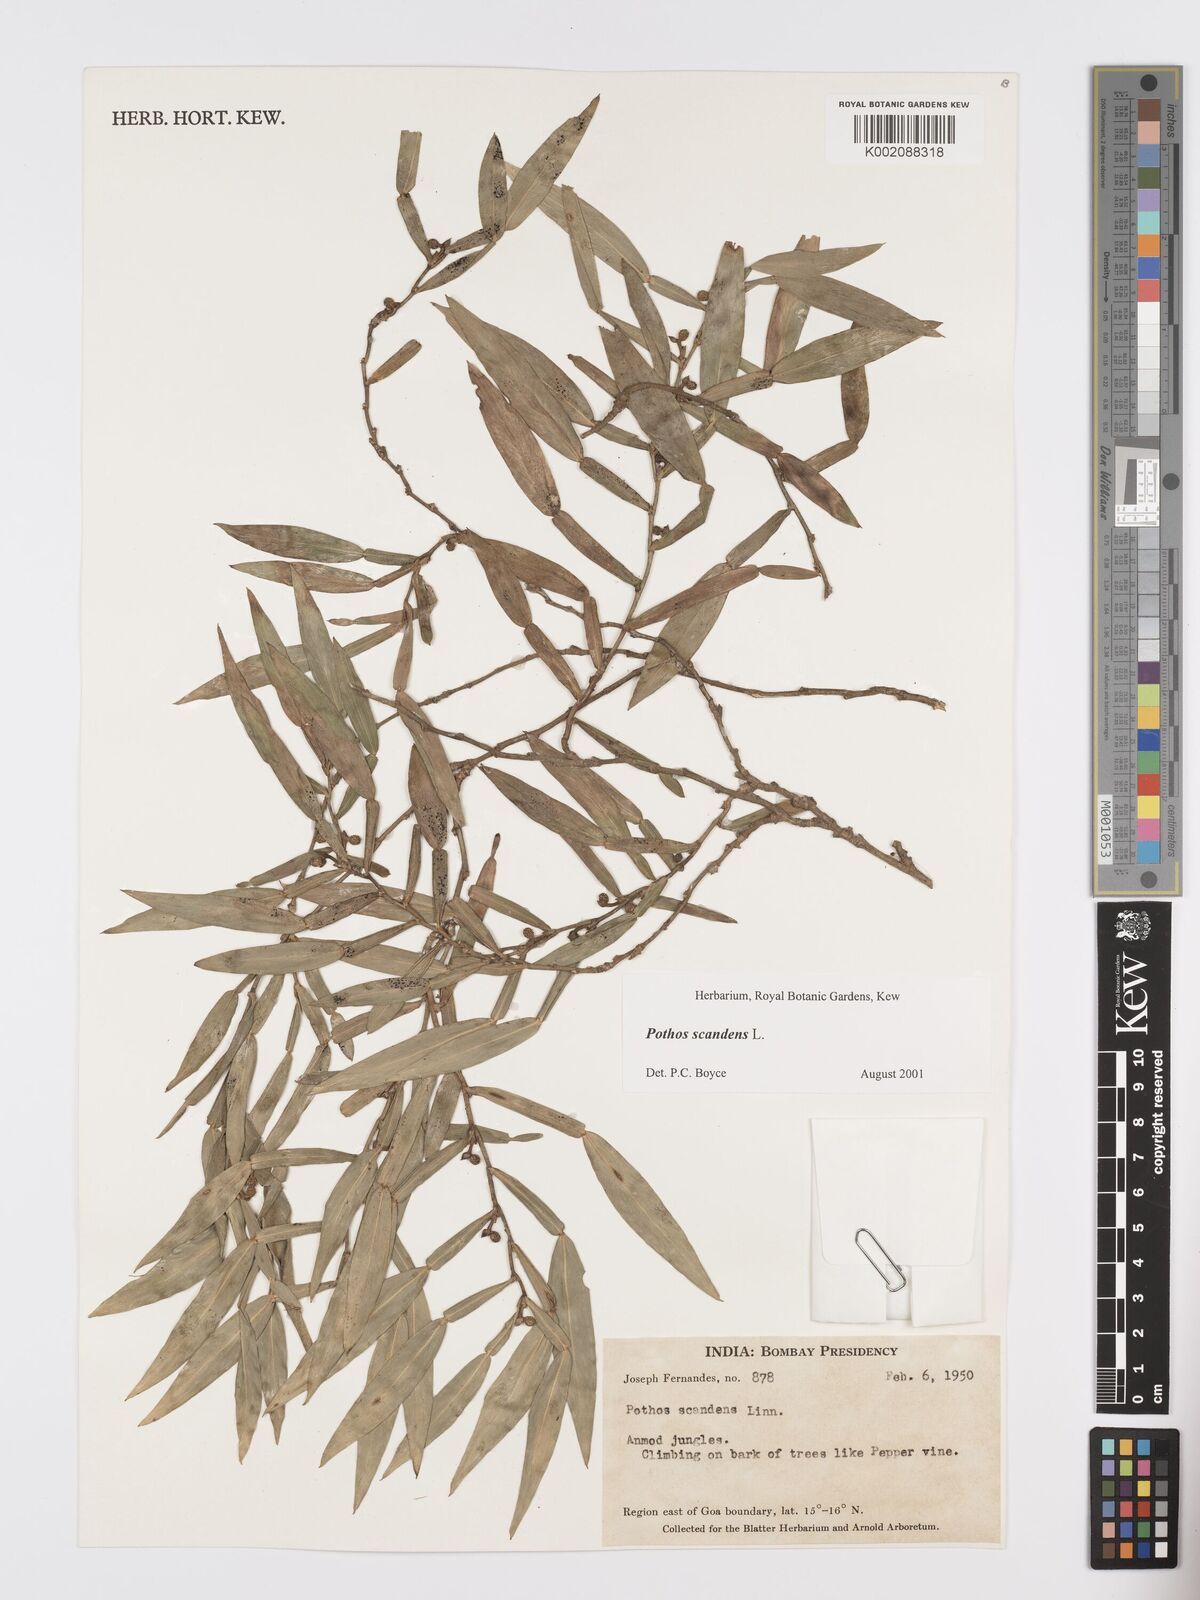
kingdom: Plantae
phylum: Tracheophyta
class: Liliopsida
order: Alismatales
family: Araceae
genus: Pothos
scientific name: Pothos scandens
